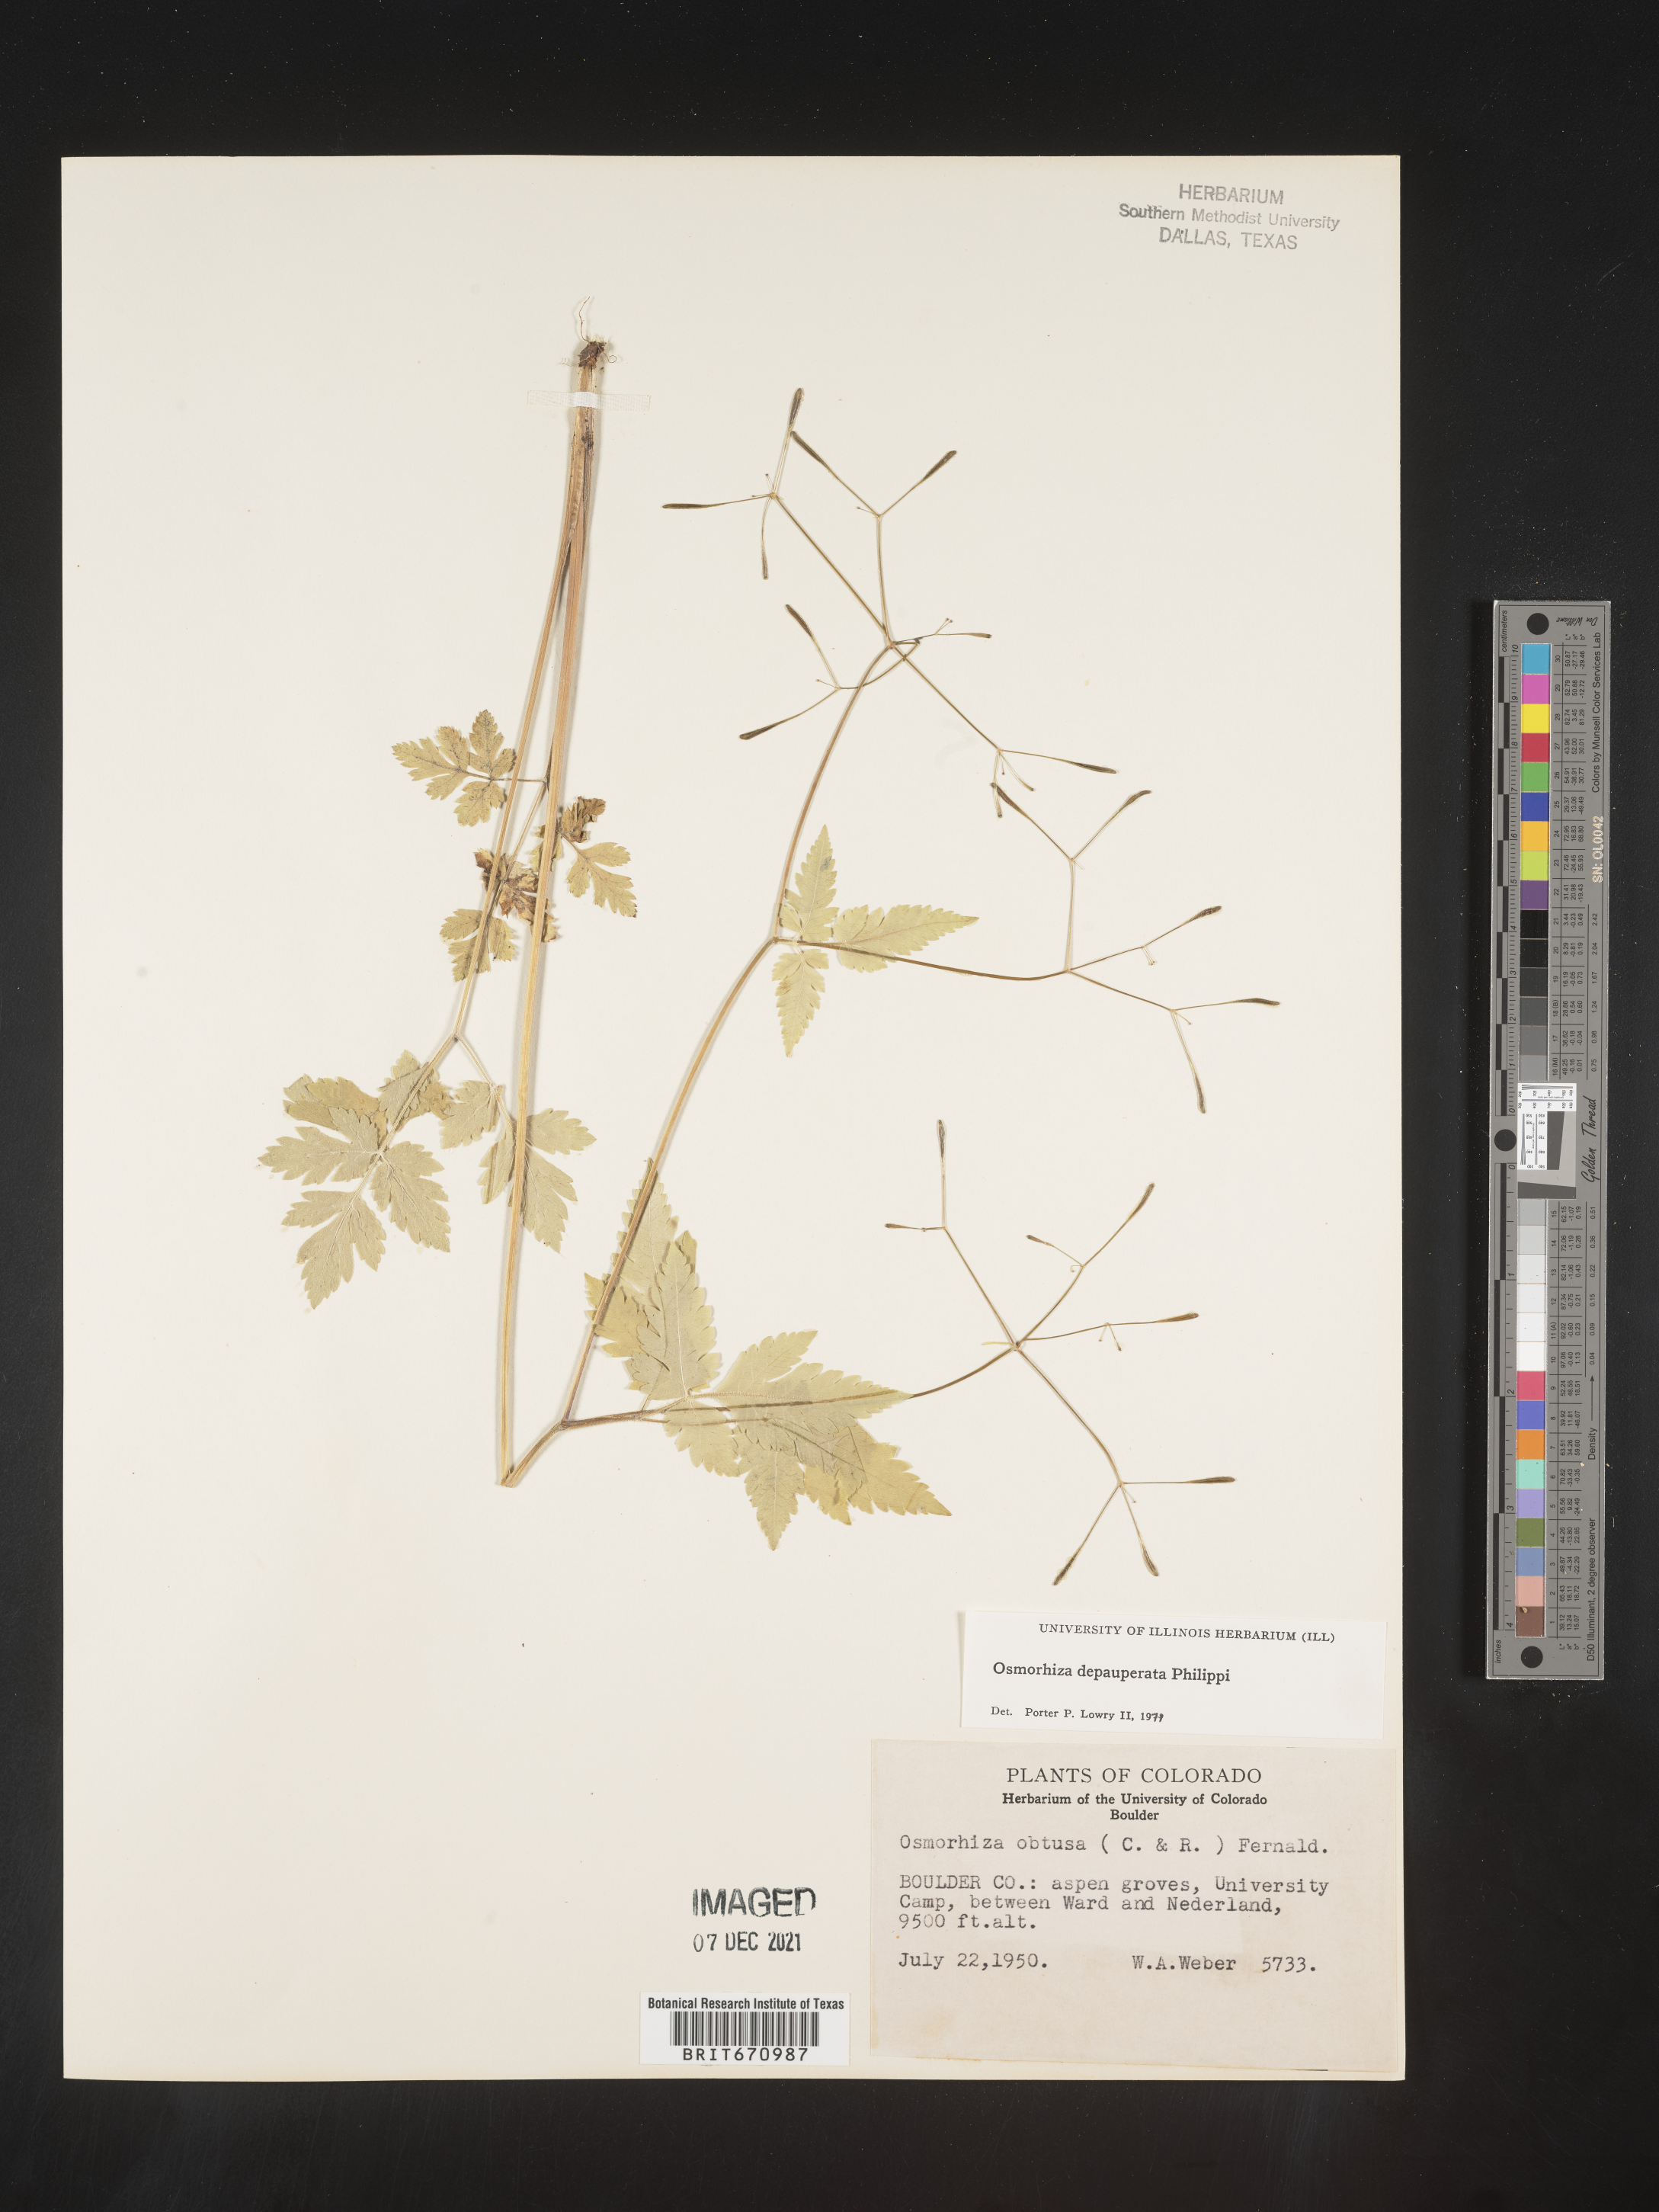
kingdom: Plantae
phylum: Tracheophyta
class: Magnoliopsida
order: Apiales
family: Apiaceae
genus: Osmorhiza
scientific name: Osmorhiza depauperata
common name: Blunt sweet cicely
